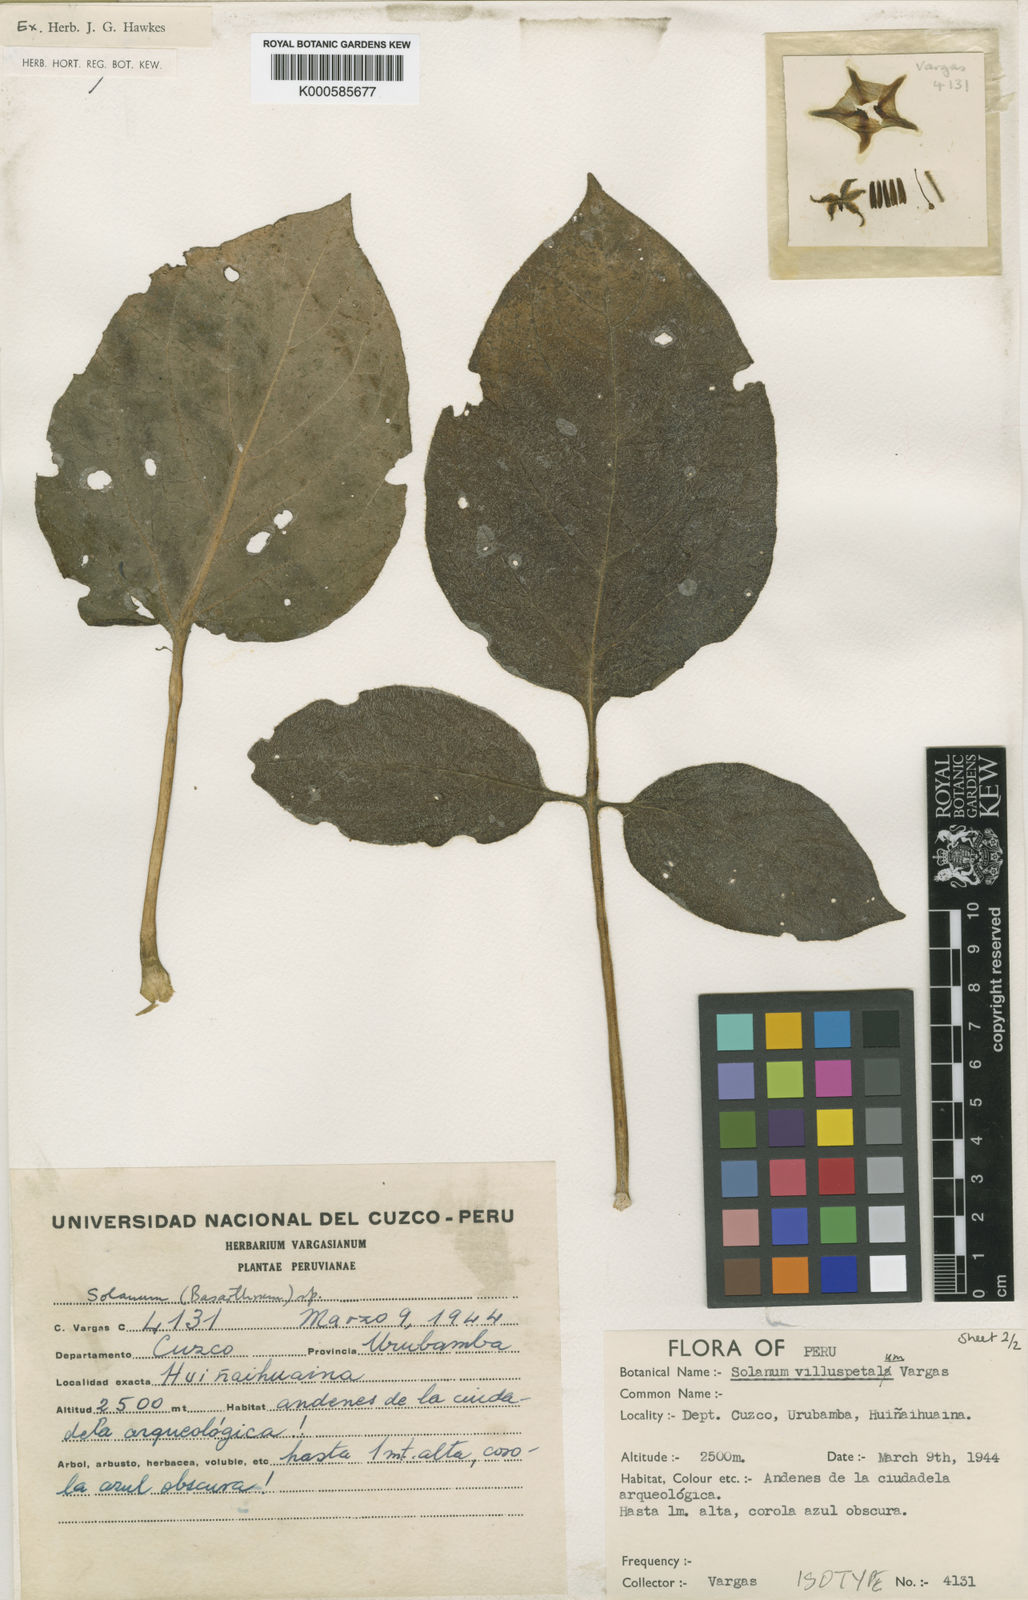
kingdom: Plantae
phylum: Tracheophyta
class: Magnoliopsida
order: Solanales
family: Solanaceae
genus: Solanum
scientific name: Solanum violaceimarmoratum
